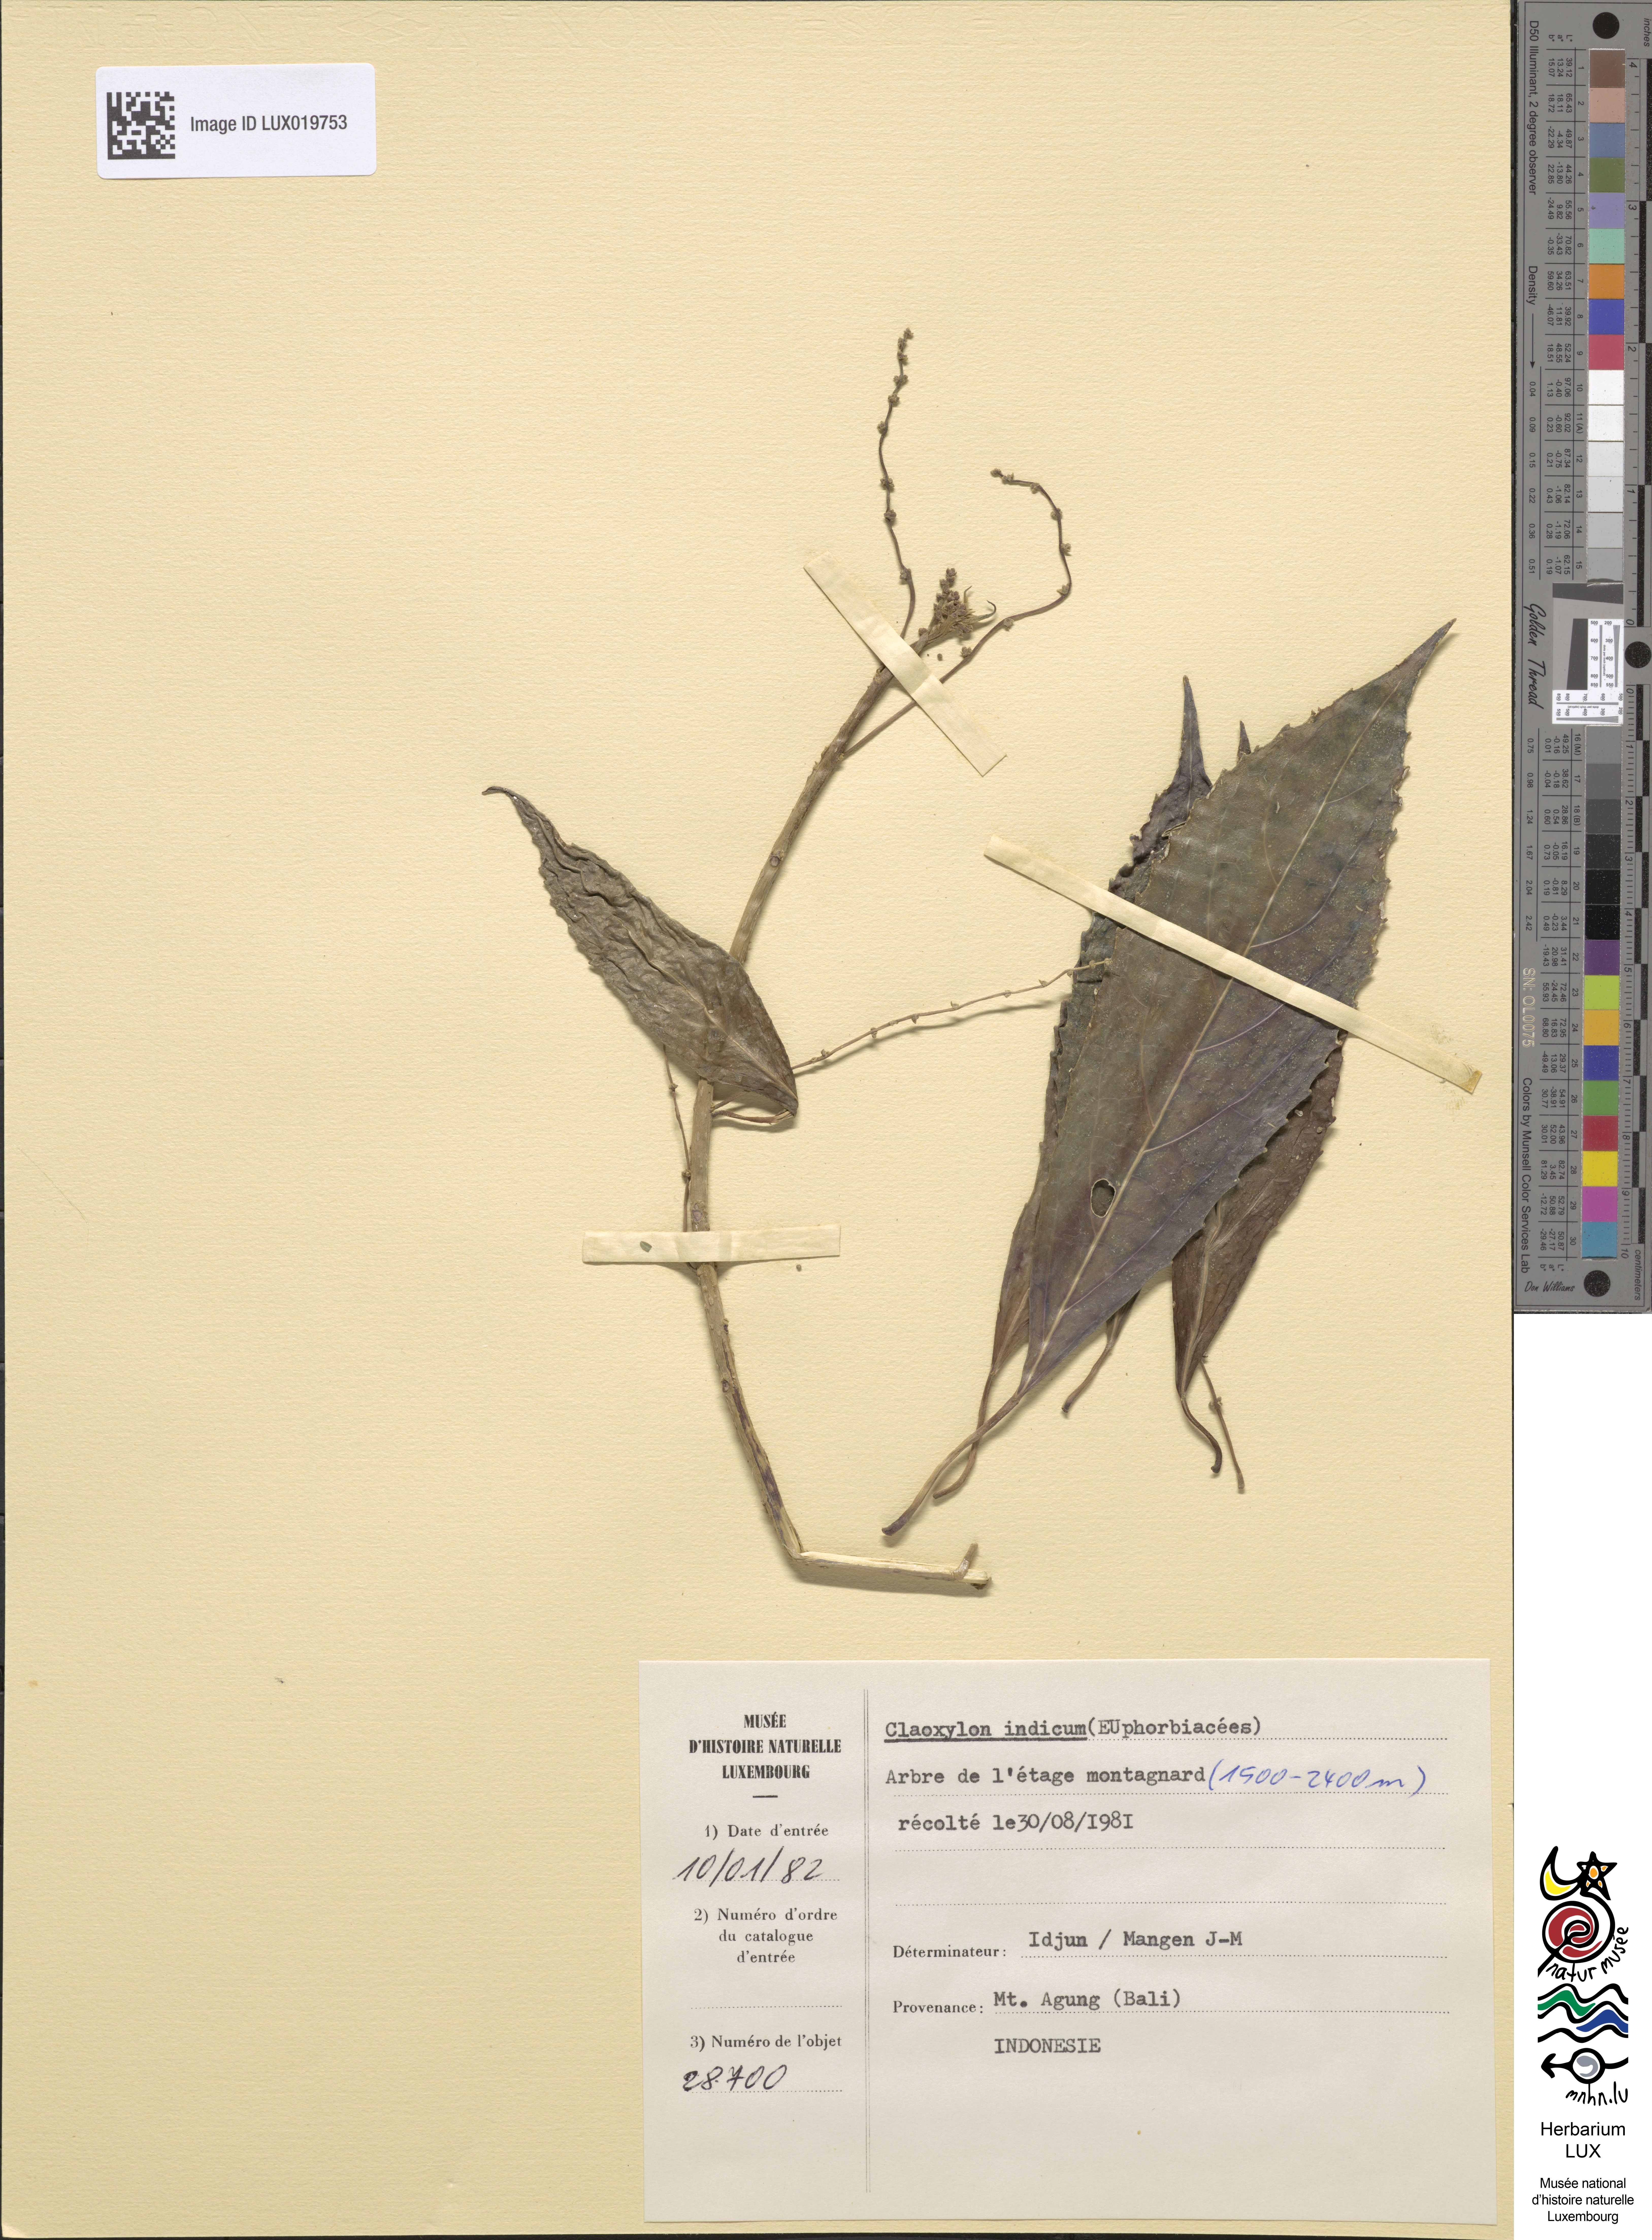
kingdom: Plantae
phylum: Tracheophyta
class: Magnoliopsida
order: Malpighiales
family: Euphorbiaceae
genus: Claoxylon
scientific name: Claoxylon indicum
